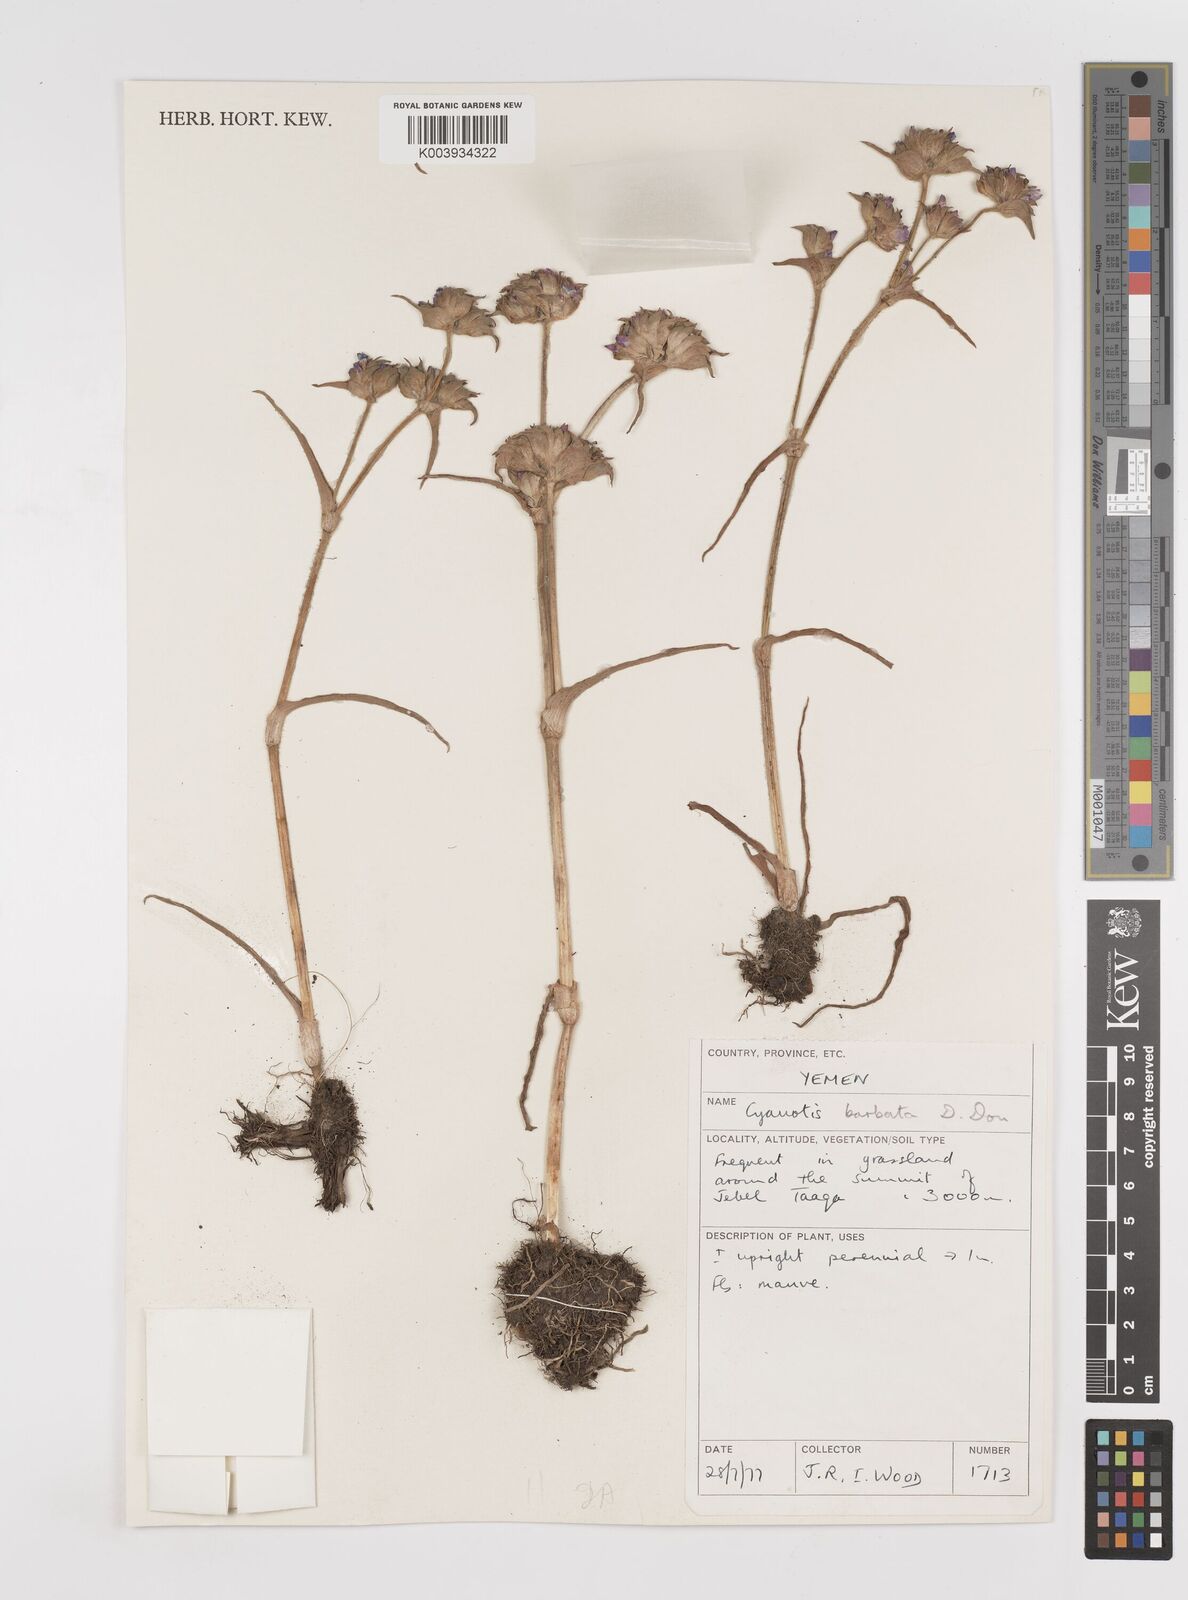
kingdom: Plantae
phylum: Tracheophyta
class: Liliopsida
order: Commelinales
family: Commelinaceae
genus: Cyanotis
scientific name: Cyanotis vaga
